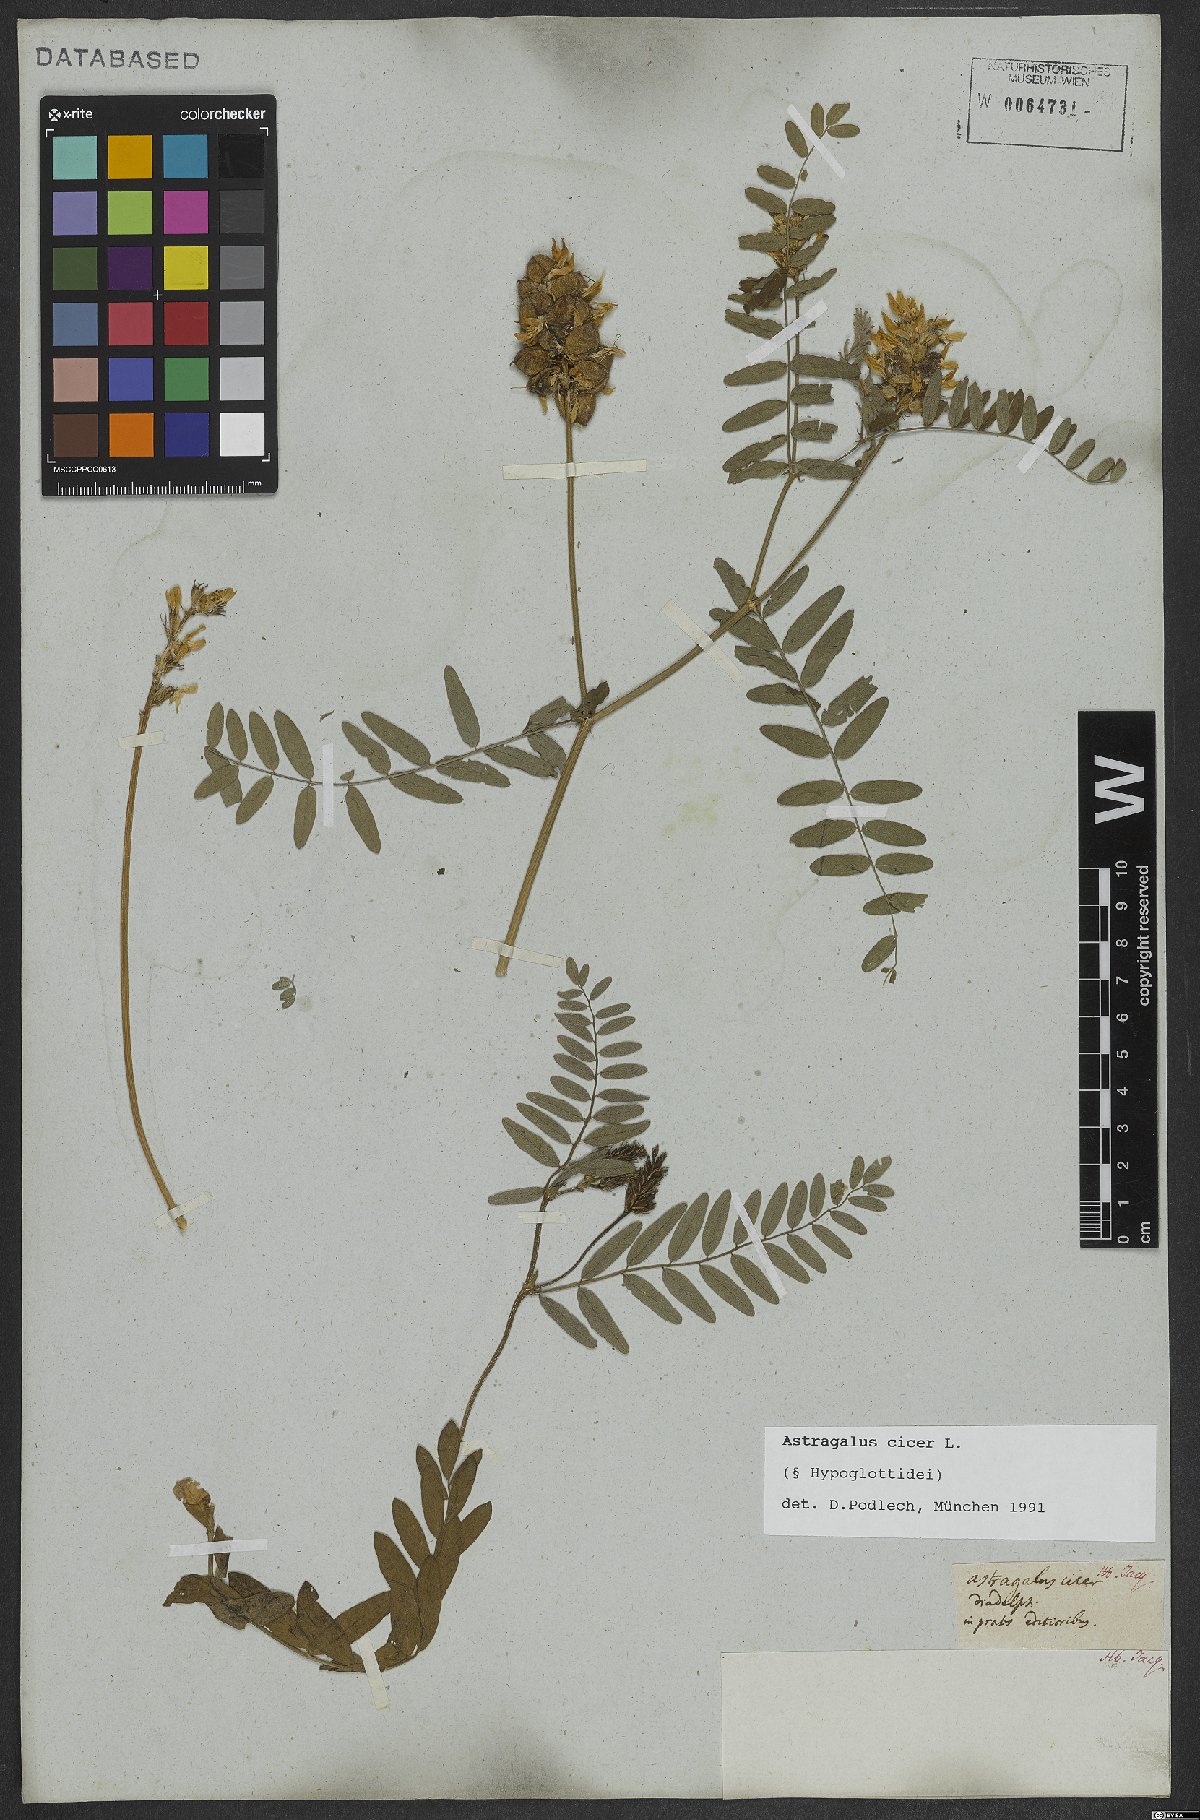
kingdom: Plantae
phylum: Tracheophyta
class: Magnoliopsida
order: Fabales
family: Fabaceae
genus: Astragalus
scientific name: Astragalus cicer
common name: Chick-pea milk-vetch
